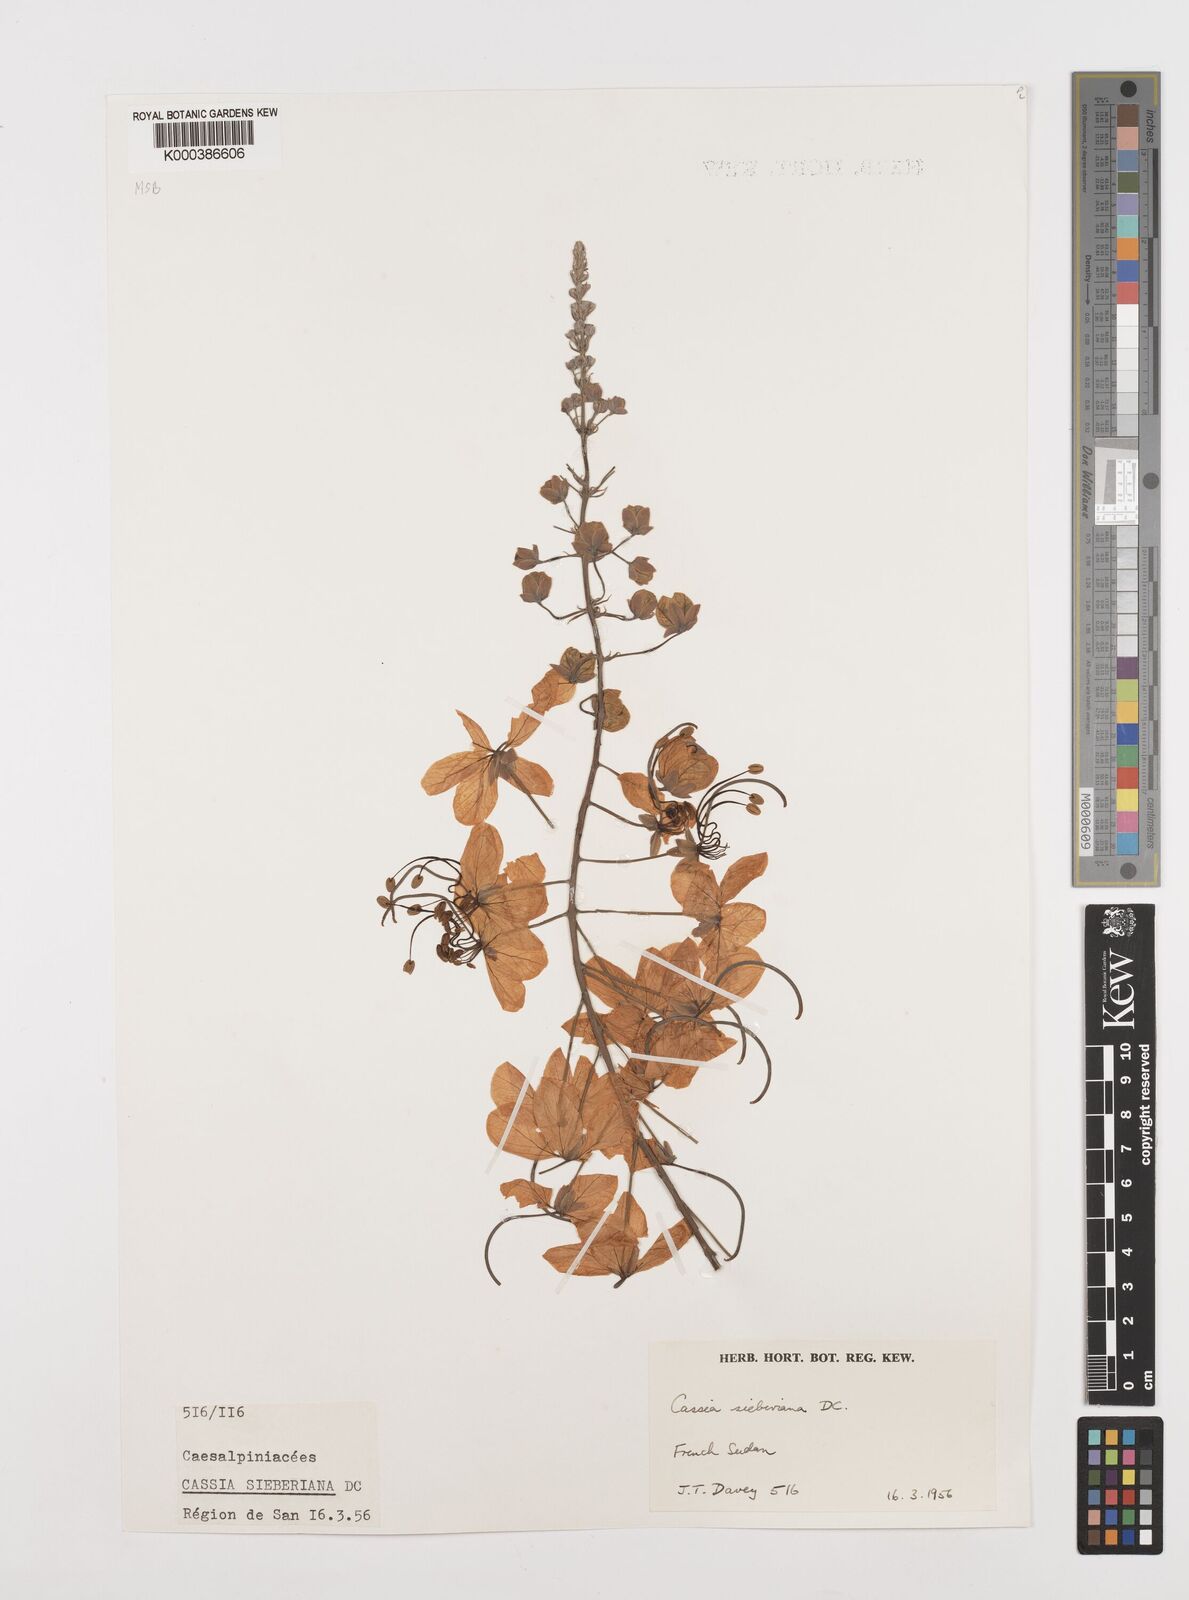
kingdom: Plantae
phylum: Tracheophyta
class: Magnoliopsida
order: Fabales
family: Fabaceae
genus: Cassia
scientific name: Cassia sieberiana
